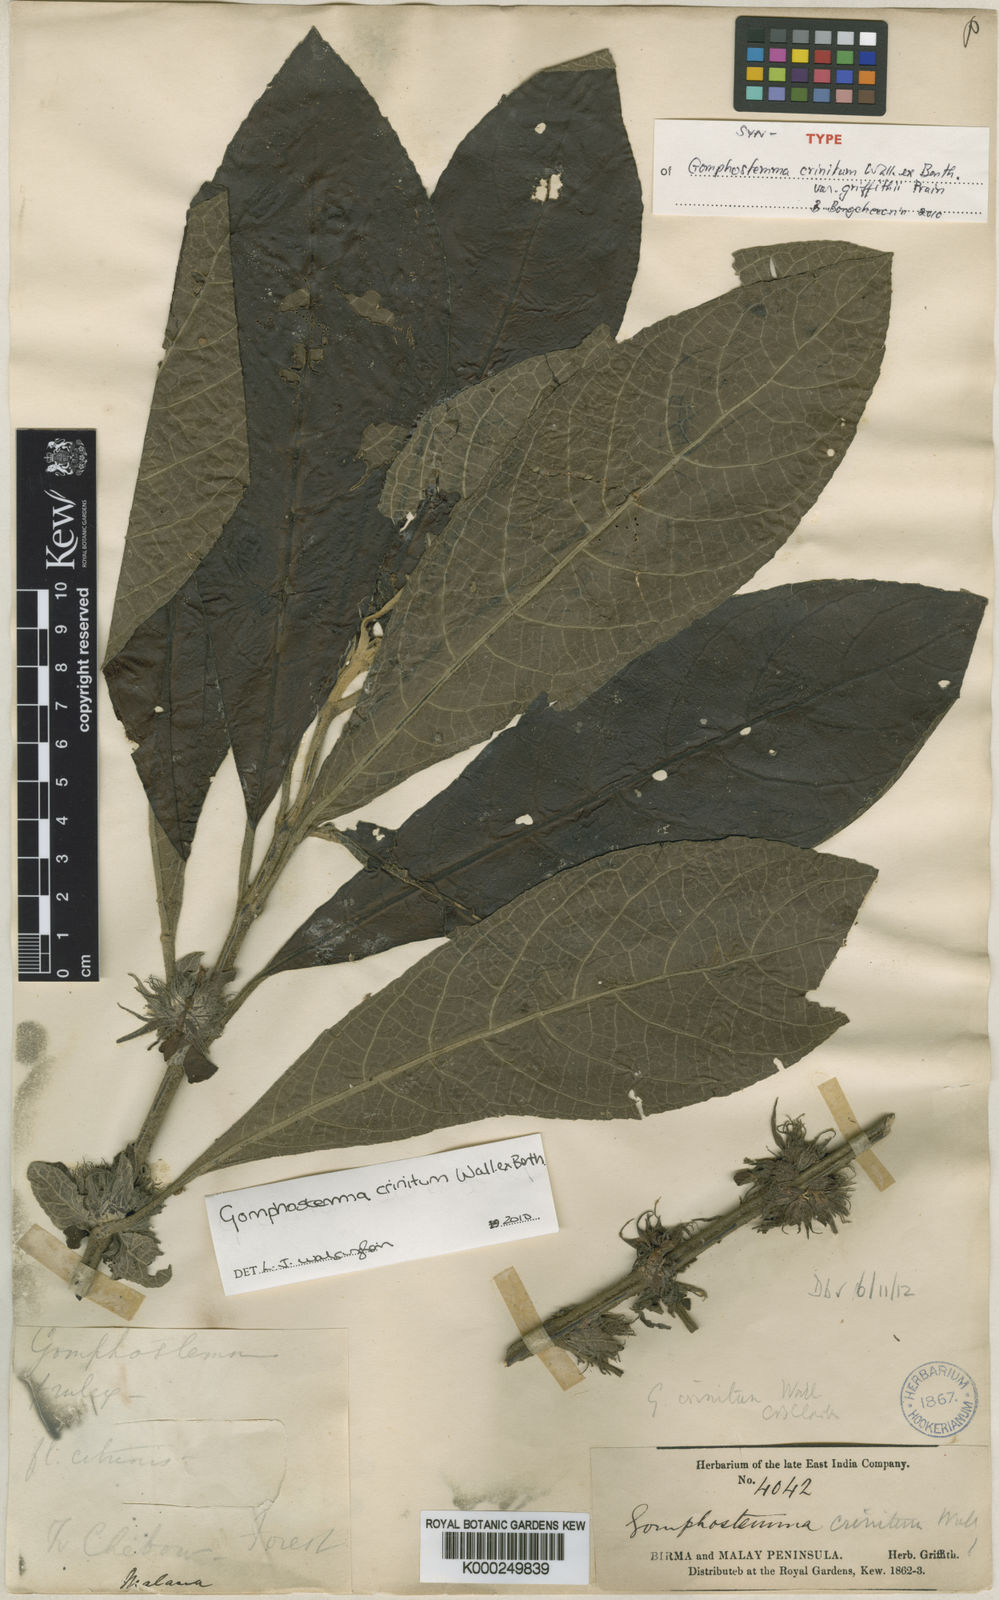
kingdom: Plantae
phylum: Tracheophyta
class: Magnoliopsida
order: Lamiales
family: Lamiaceae
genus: Gomphostemma
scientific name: Gomphostemma crinitum
